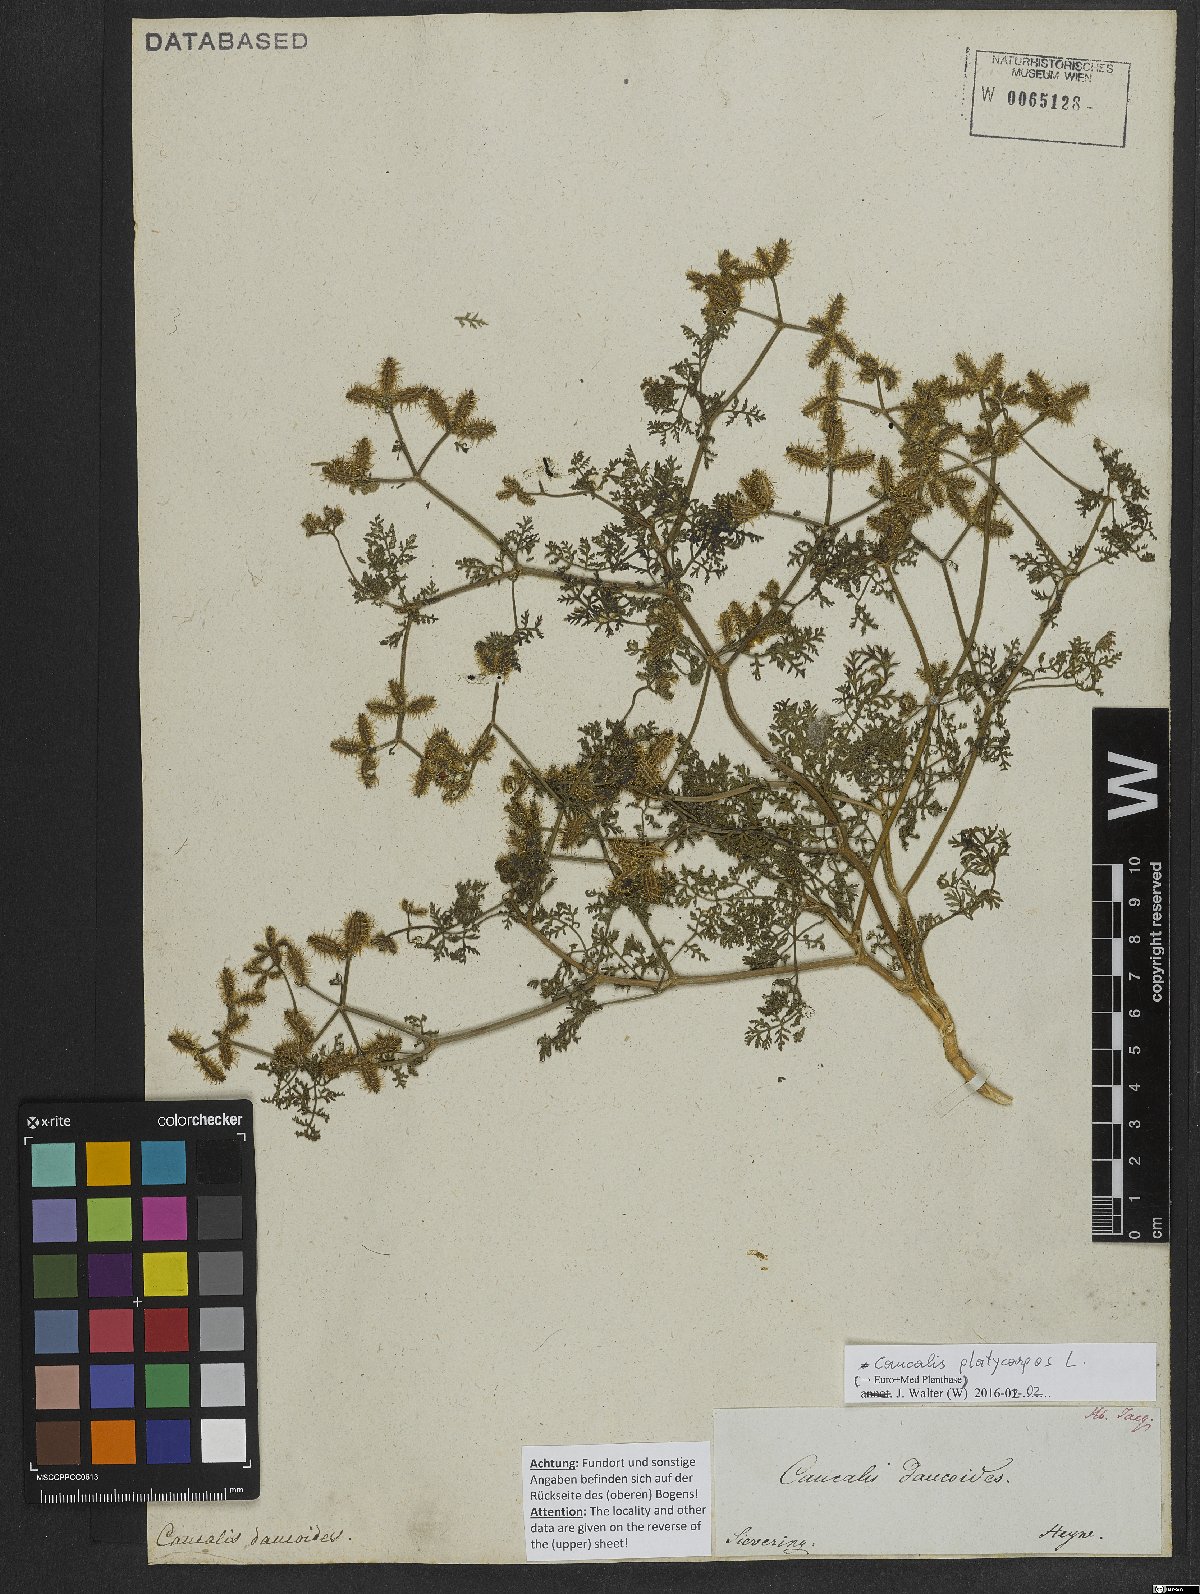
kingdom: Plantae
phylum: Tracheophyta
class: Magnoliopsida
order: Apiales
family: Apiaceae
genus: Caucalis
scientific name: Caucalis platycarpos
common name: Small bur-parsley
